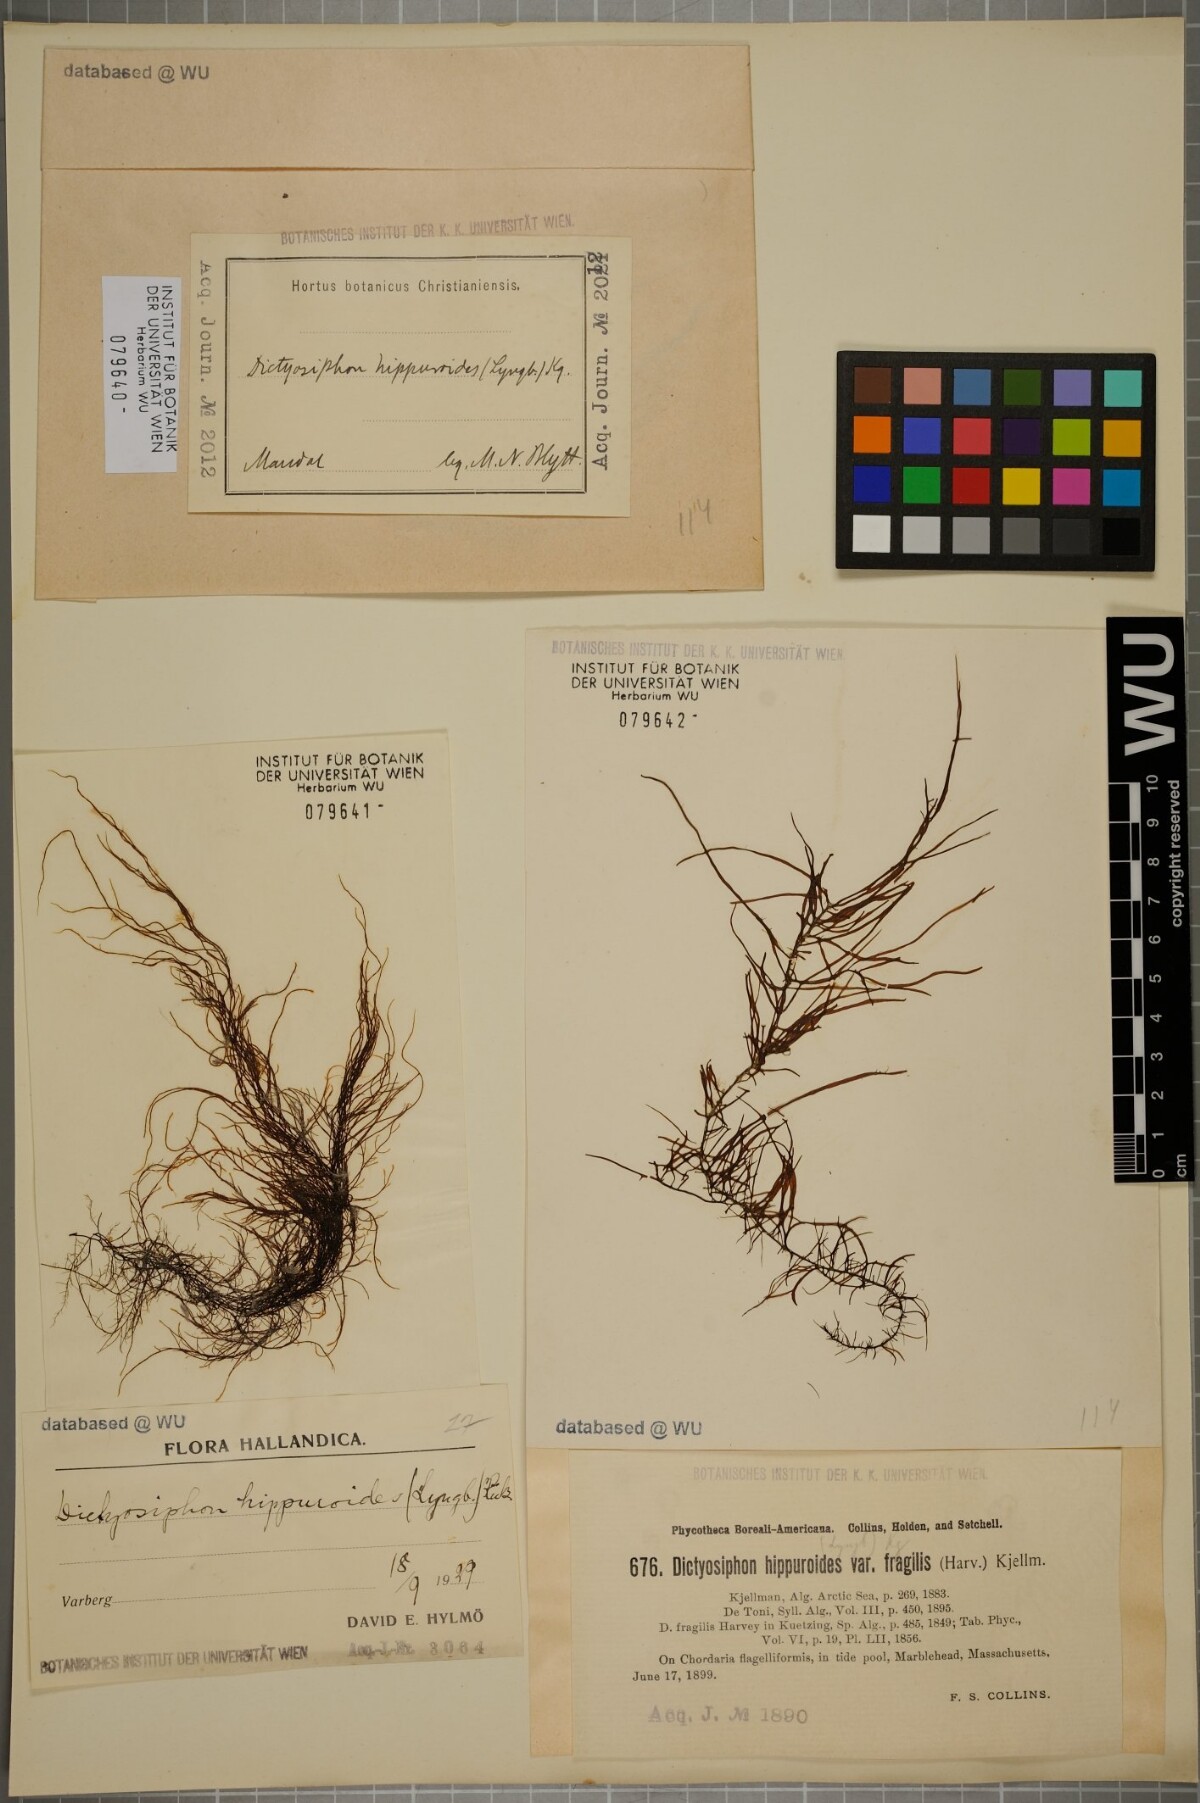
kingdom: Chromista
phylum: Ochrophyta
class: Phaeophyceae
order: Ectocarpales
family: Chordariaceae
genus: Dictyosiphon
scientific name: Dictyosiphon foeniculaceus
